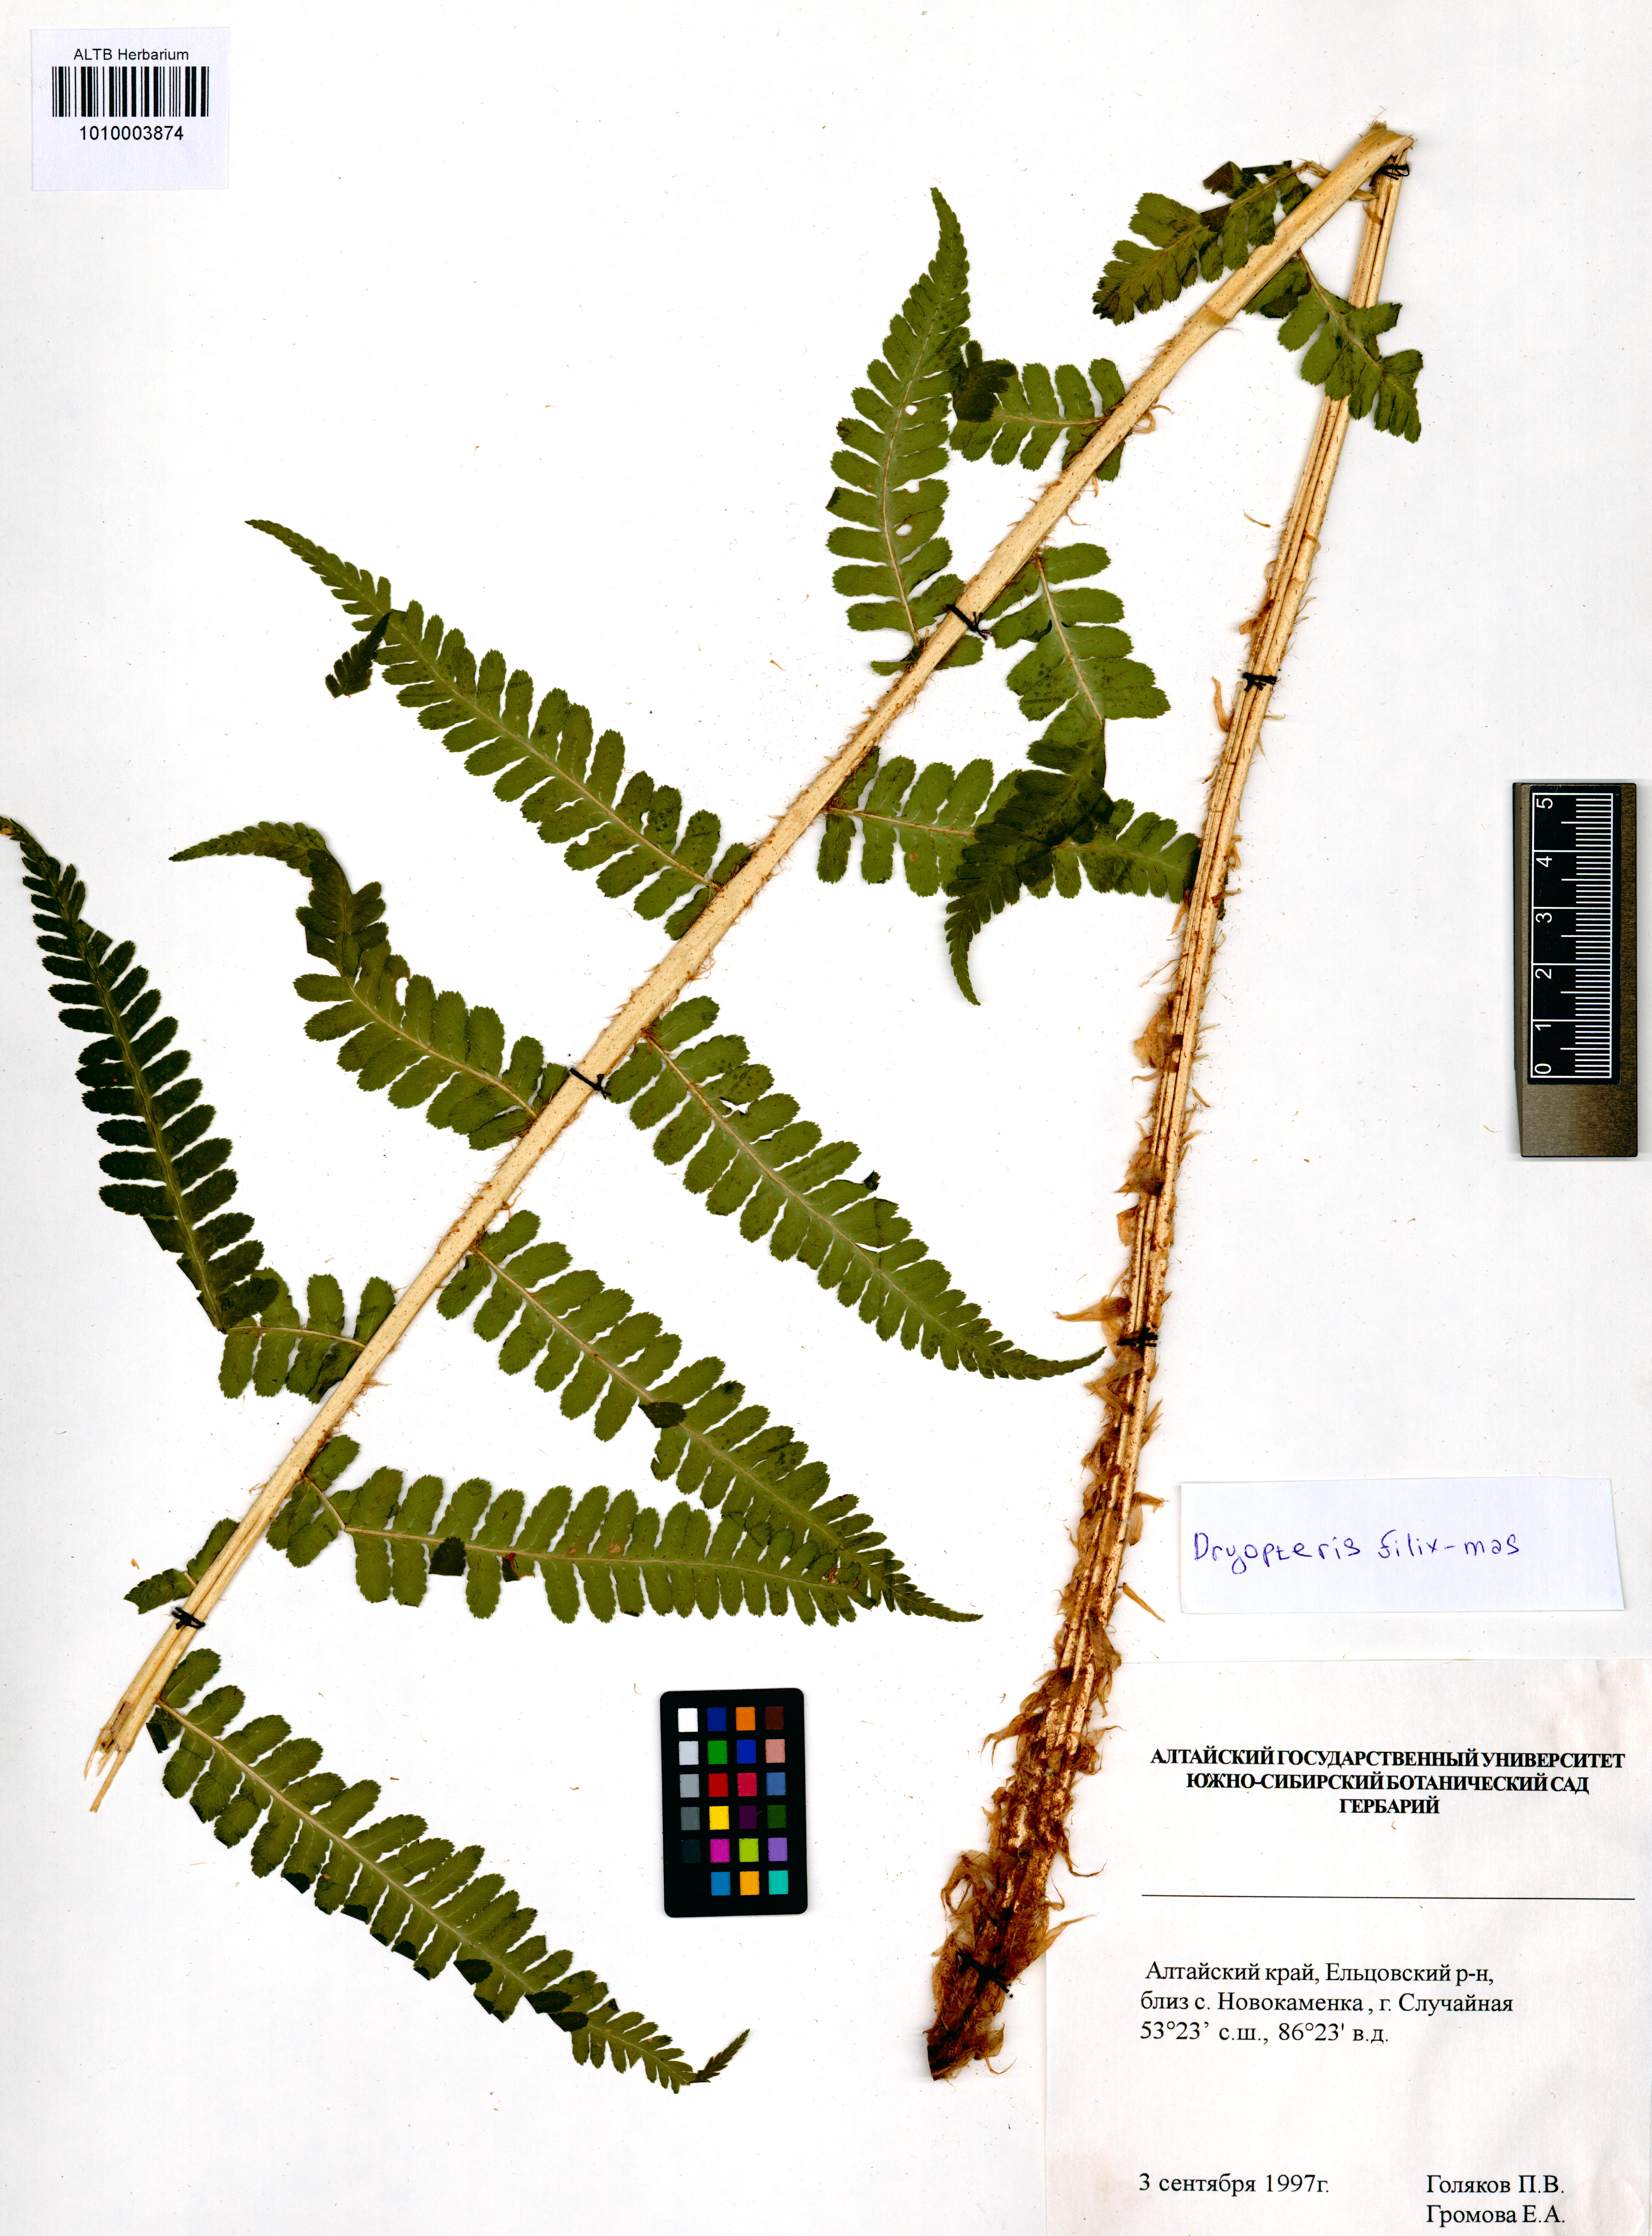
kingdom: Plantae
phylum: Tracheophyta
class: Polypodiopsida
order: Polypodiales
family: Dryopteridaceae
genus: Dryopteris
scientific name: Dryopteris filix-mas
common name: Male fern
